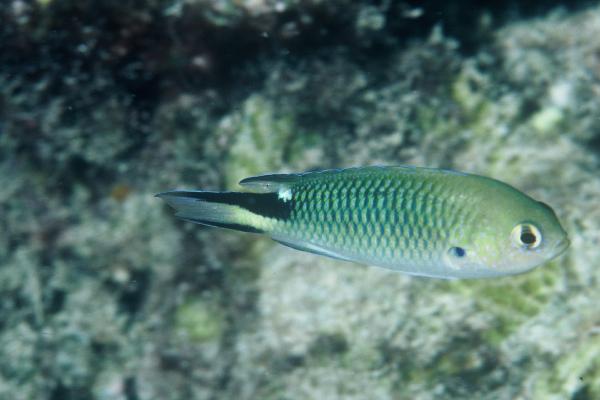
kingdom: Animalia
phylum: Chordata
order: Perciformes
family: Pomacentridae
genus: Pomachromis
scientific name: Pomachromis richardsoni
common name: Richardson's damsel
